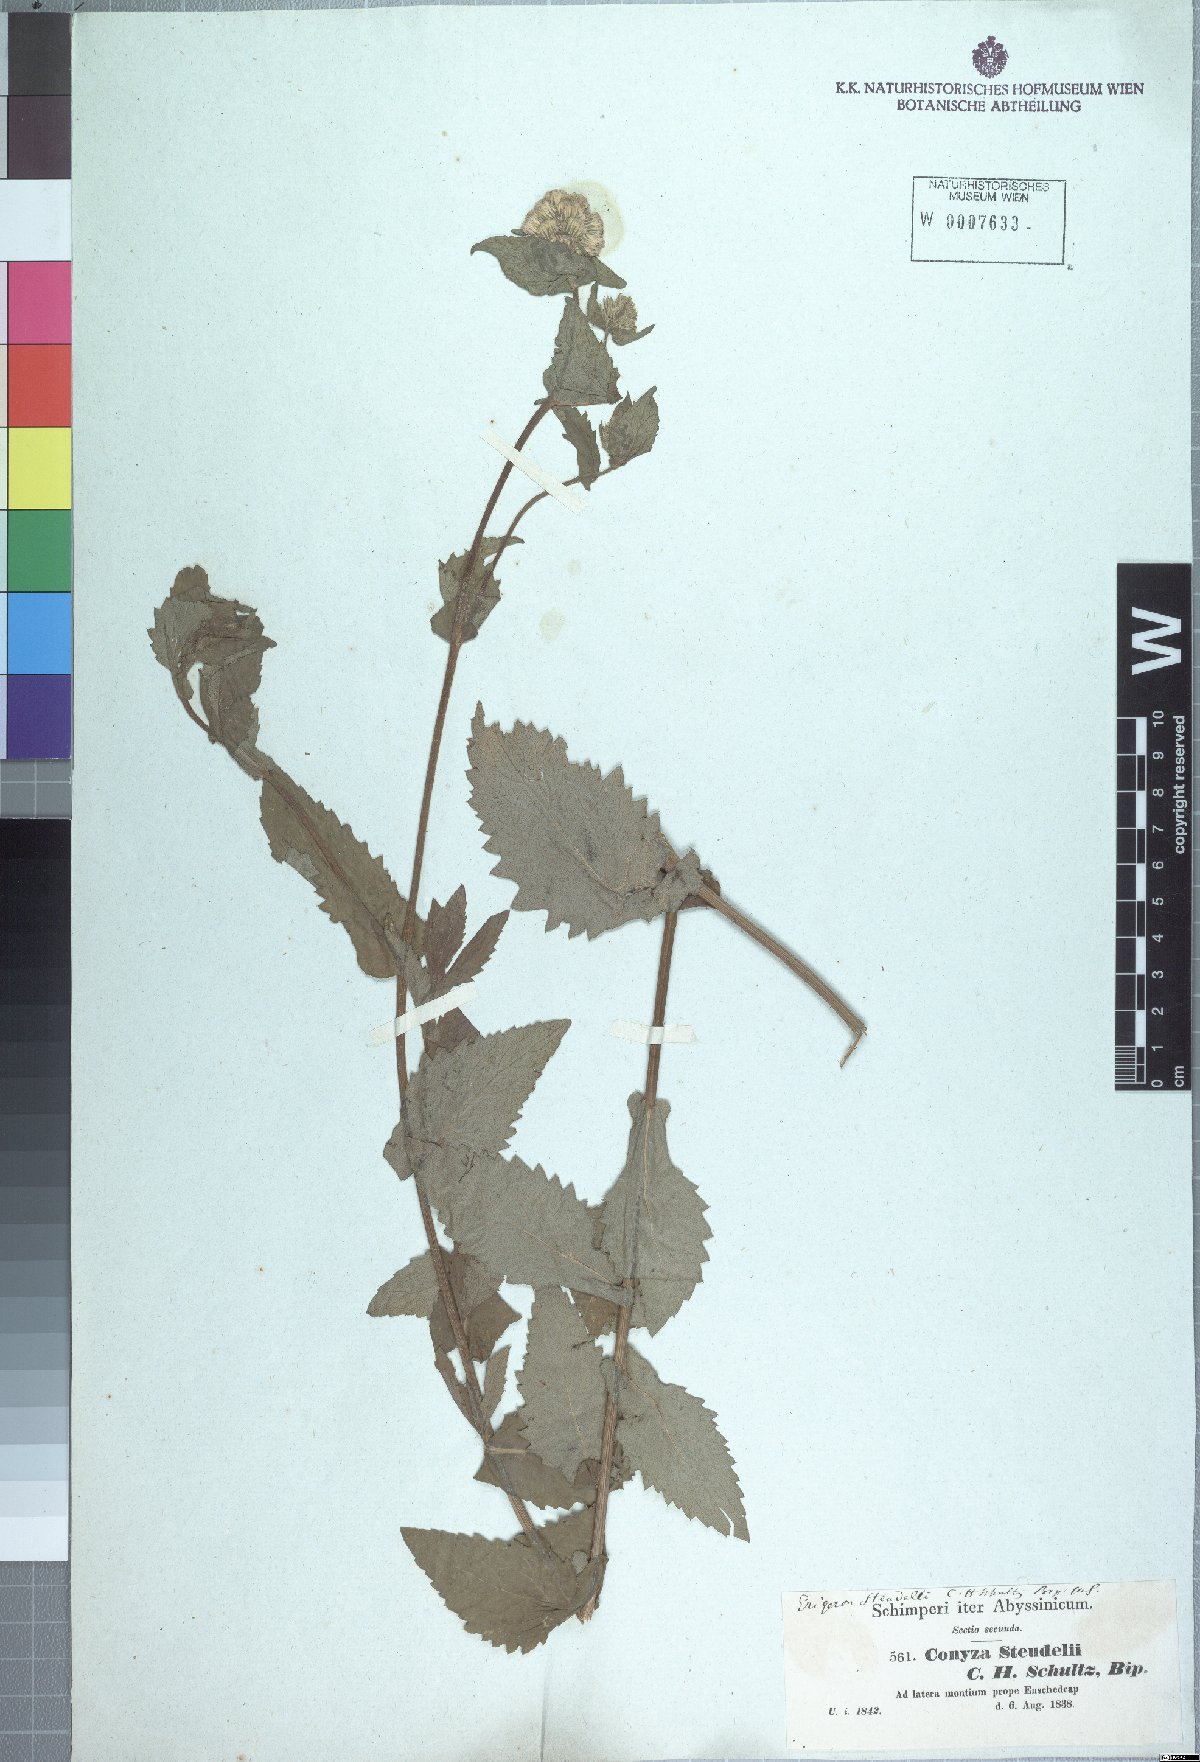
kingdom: Plantae
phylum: Tracheophyta
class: Magnoliopsida
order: Asterales
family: Asteraceae
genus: Conyza
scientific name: Conyza steudelii
